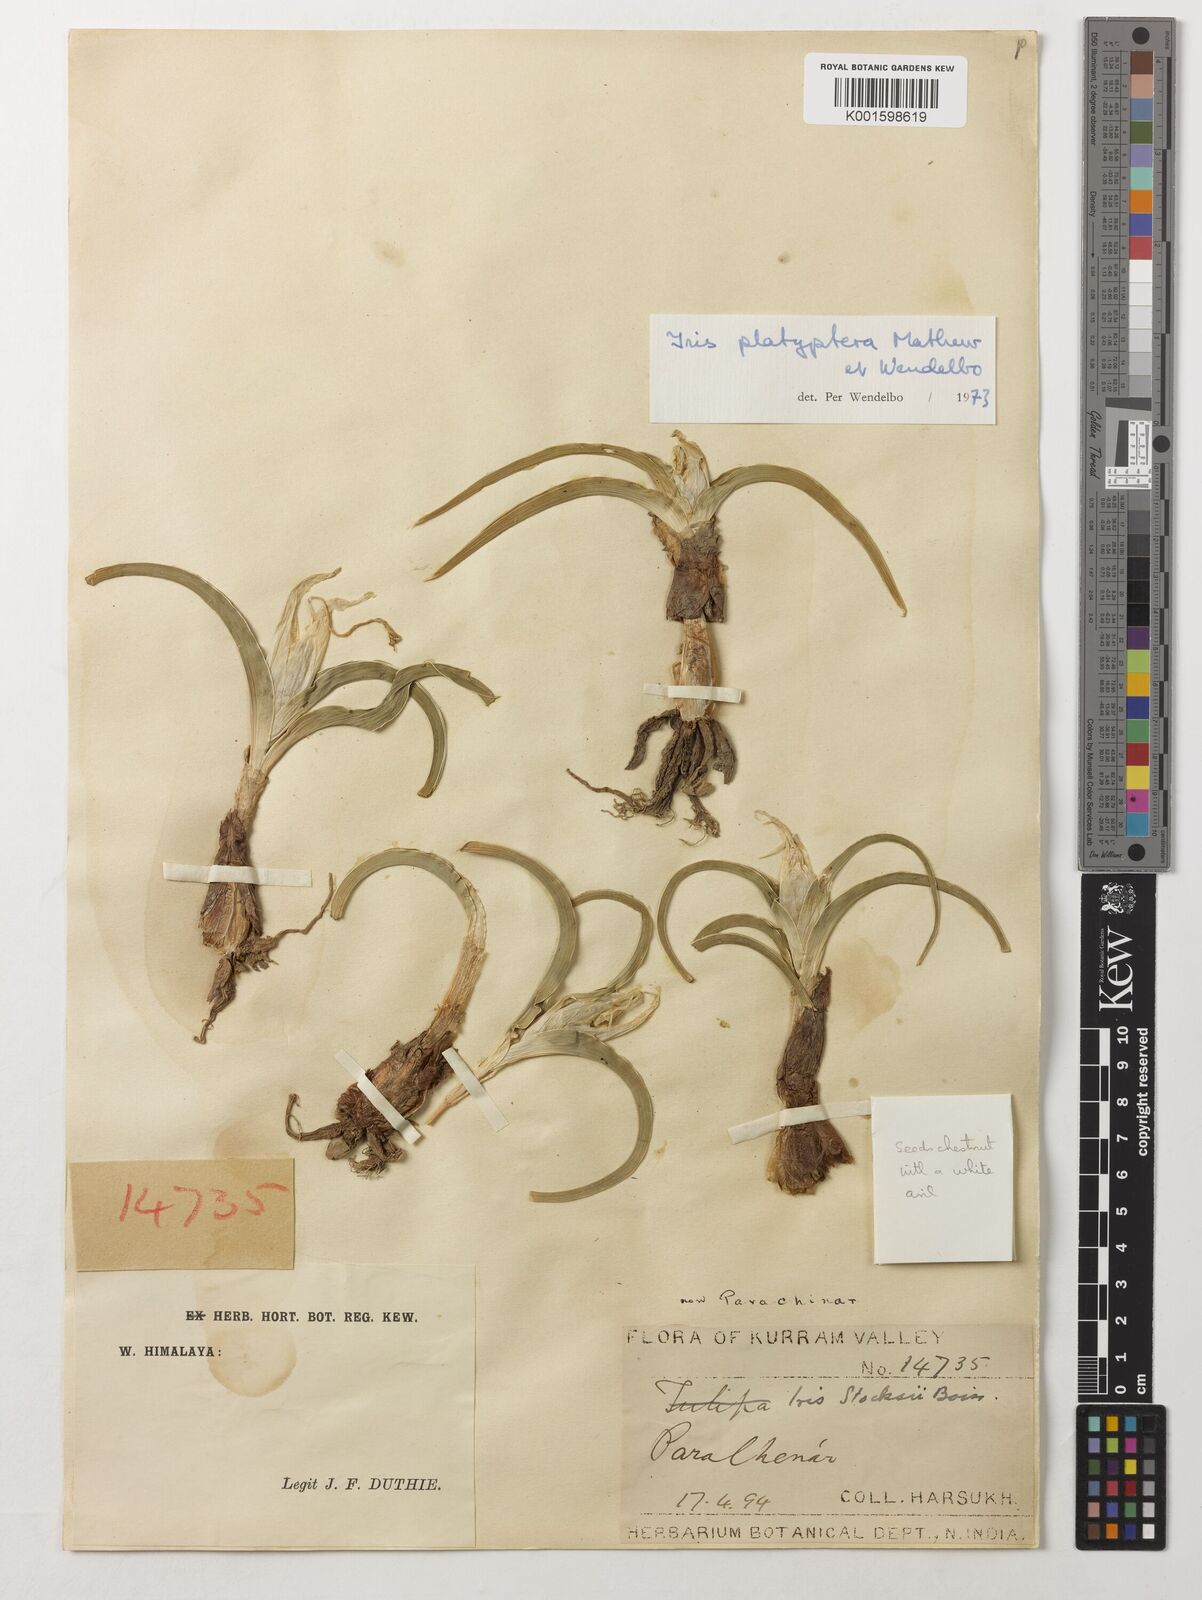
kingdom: Plantae
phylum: Tracheophyta
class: Liliopsida
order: Asparagales
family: Iridaceae
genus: Iris
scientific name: Iris platyptera
